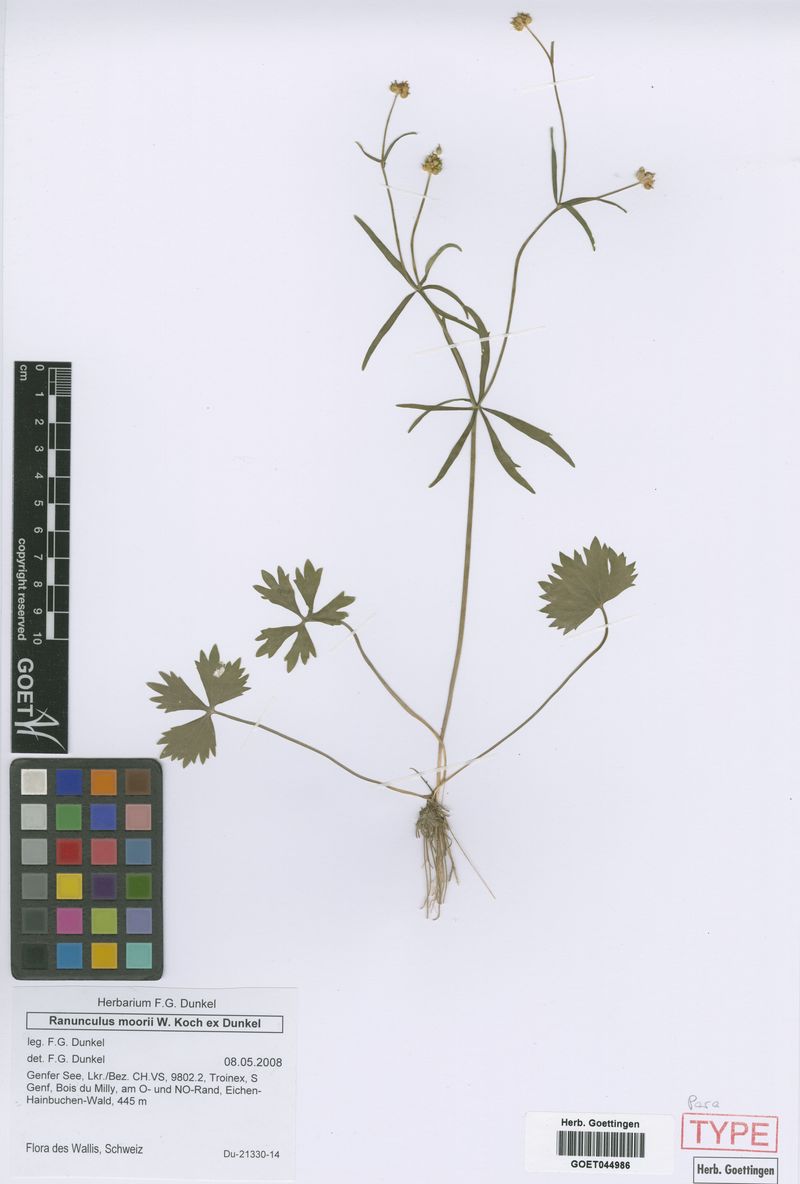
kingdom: Plantae
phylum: Tracheophyta
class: Magnoliopsida
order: Ranunculales
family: Ranunculaceae
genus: Ranunculus
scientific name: Ranunculus moorii
